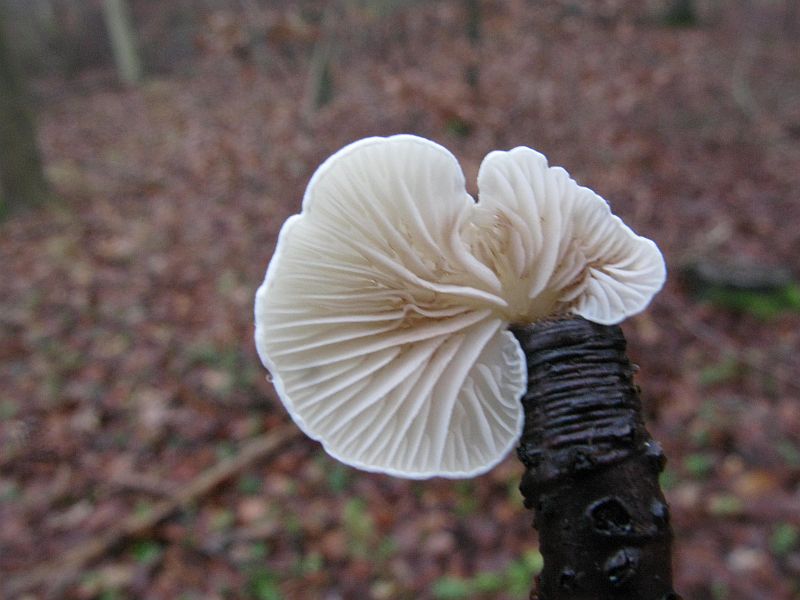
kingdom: Fungi
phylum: Basidiomycota
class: Agaricomycetes
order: Agaricales
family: Crepidotaceae
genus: Crepidotus
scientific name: Crepidotus luteolus
